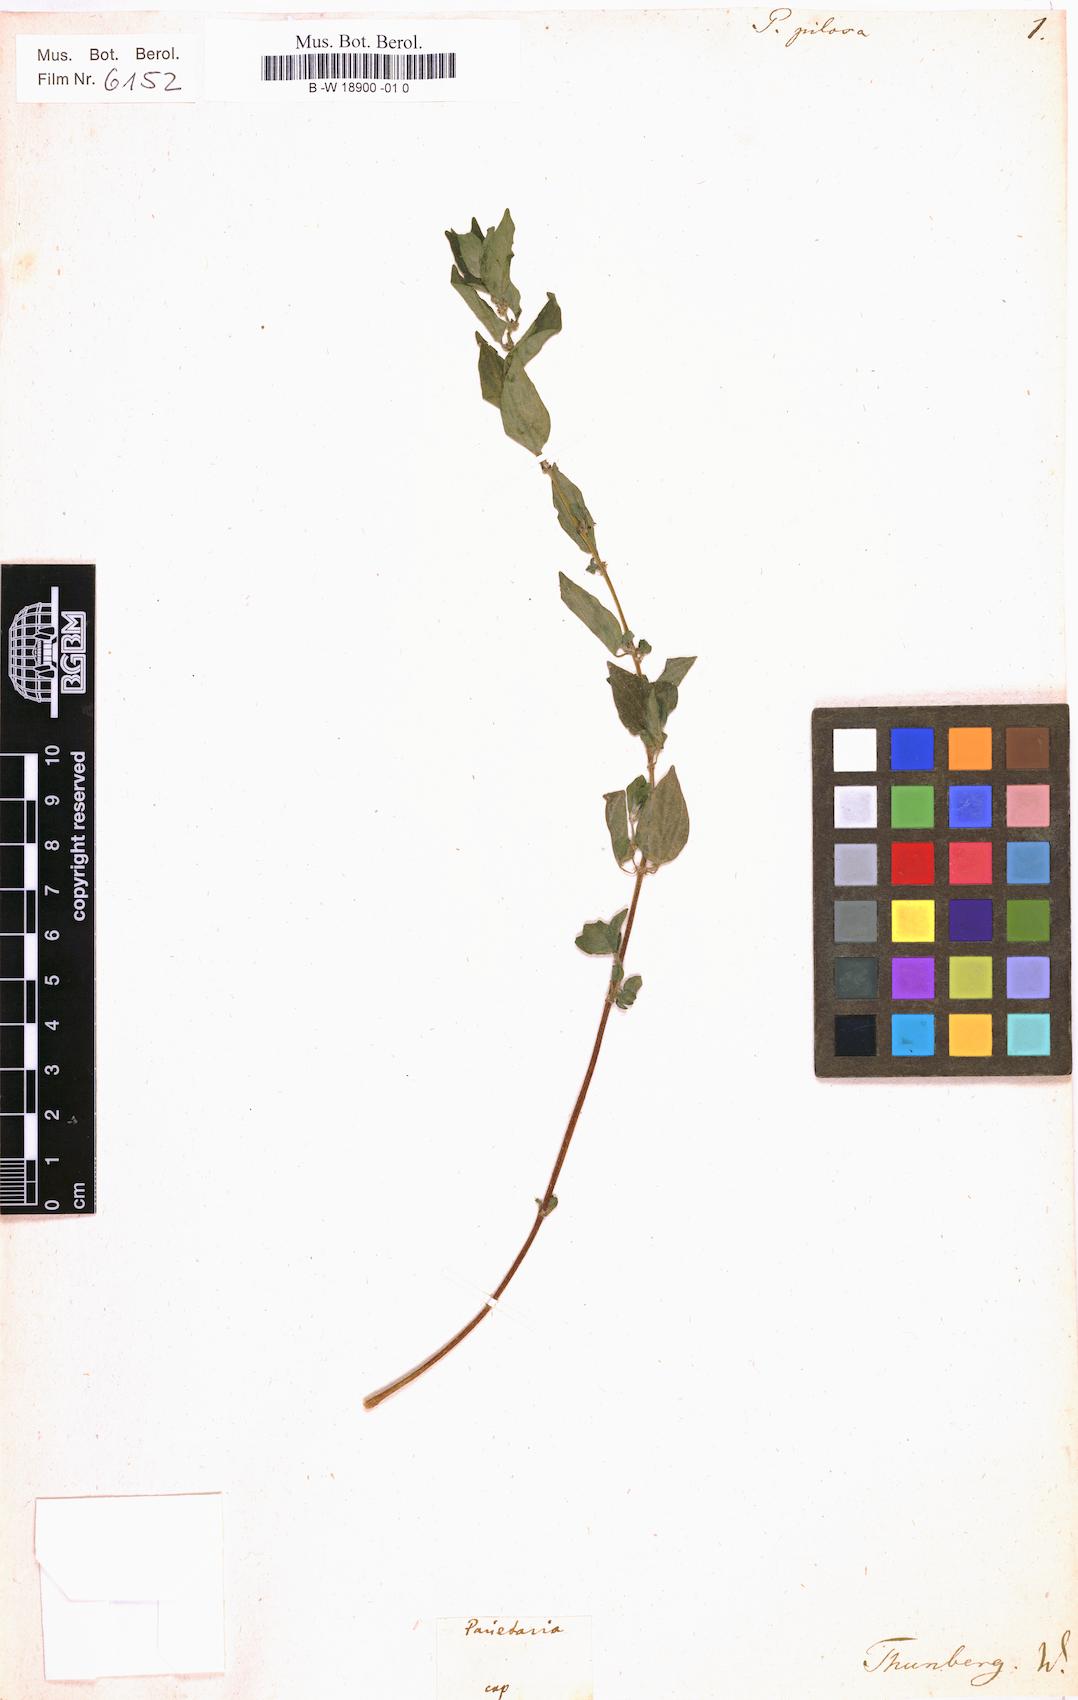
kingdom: Plantae
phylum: Tracheophyta
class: Magnoliopsida
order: Rosales
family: Urticaceae
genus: Parietaria
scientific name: Parietaria judaica
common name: Pellitory-of-the-wall
